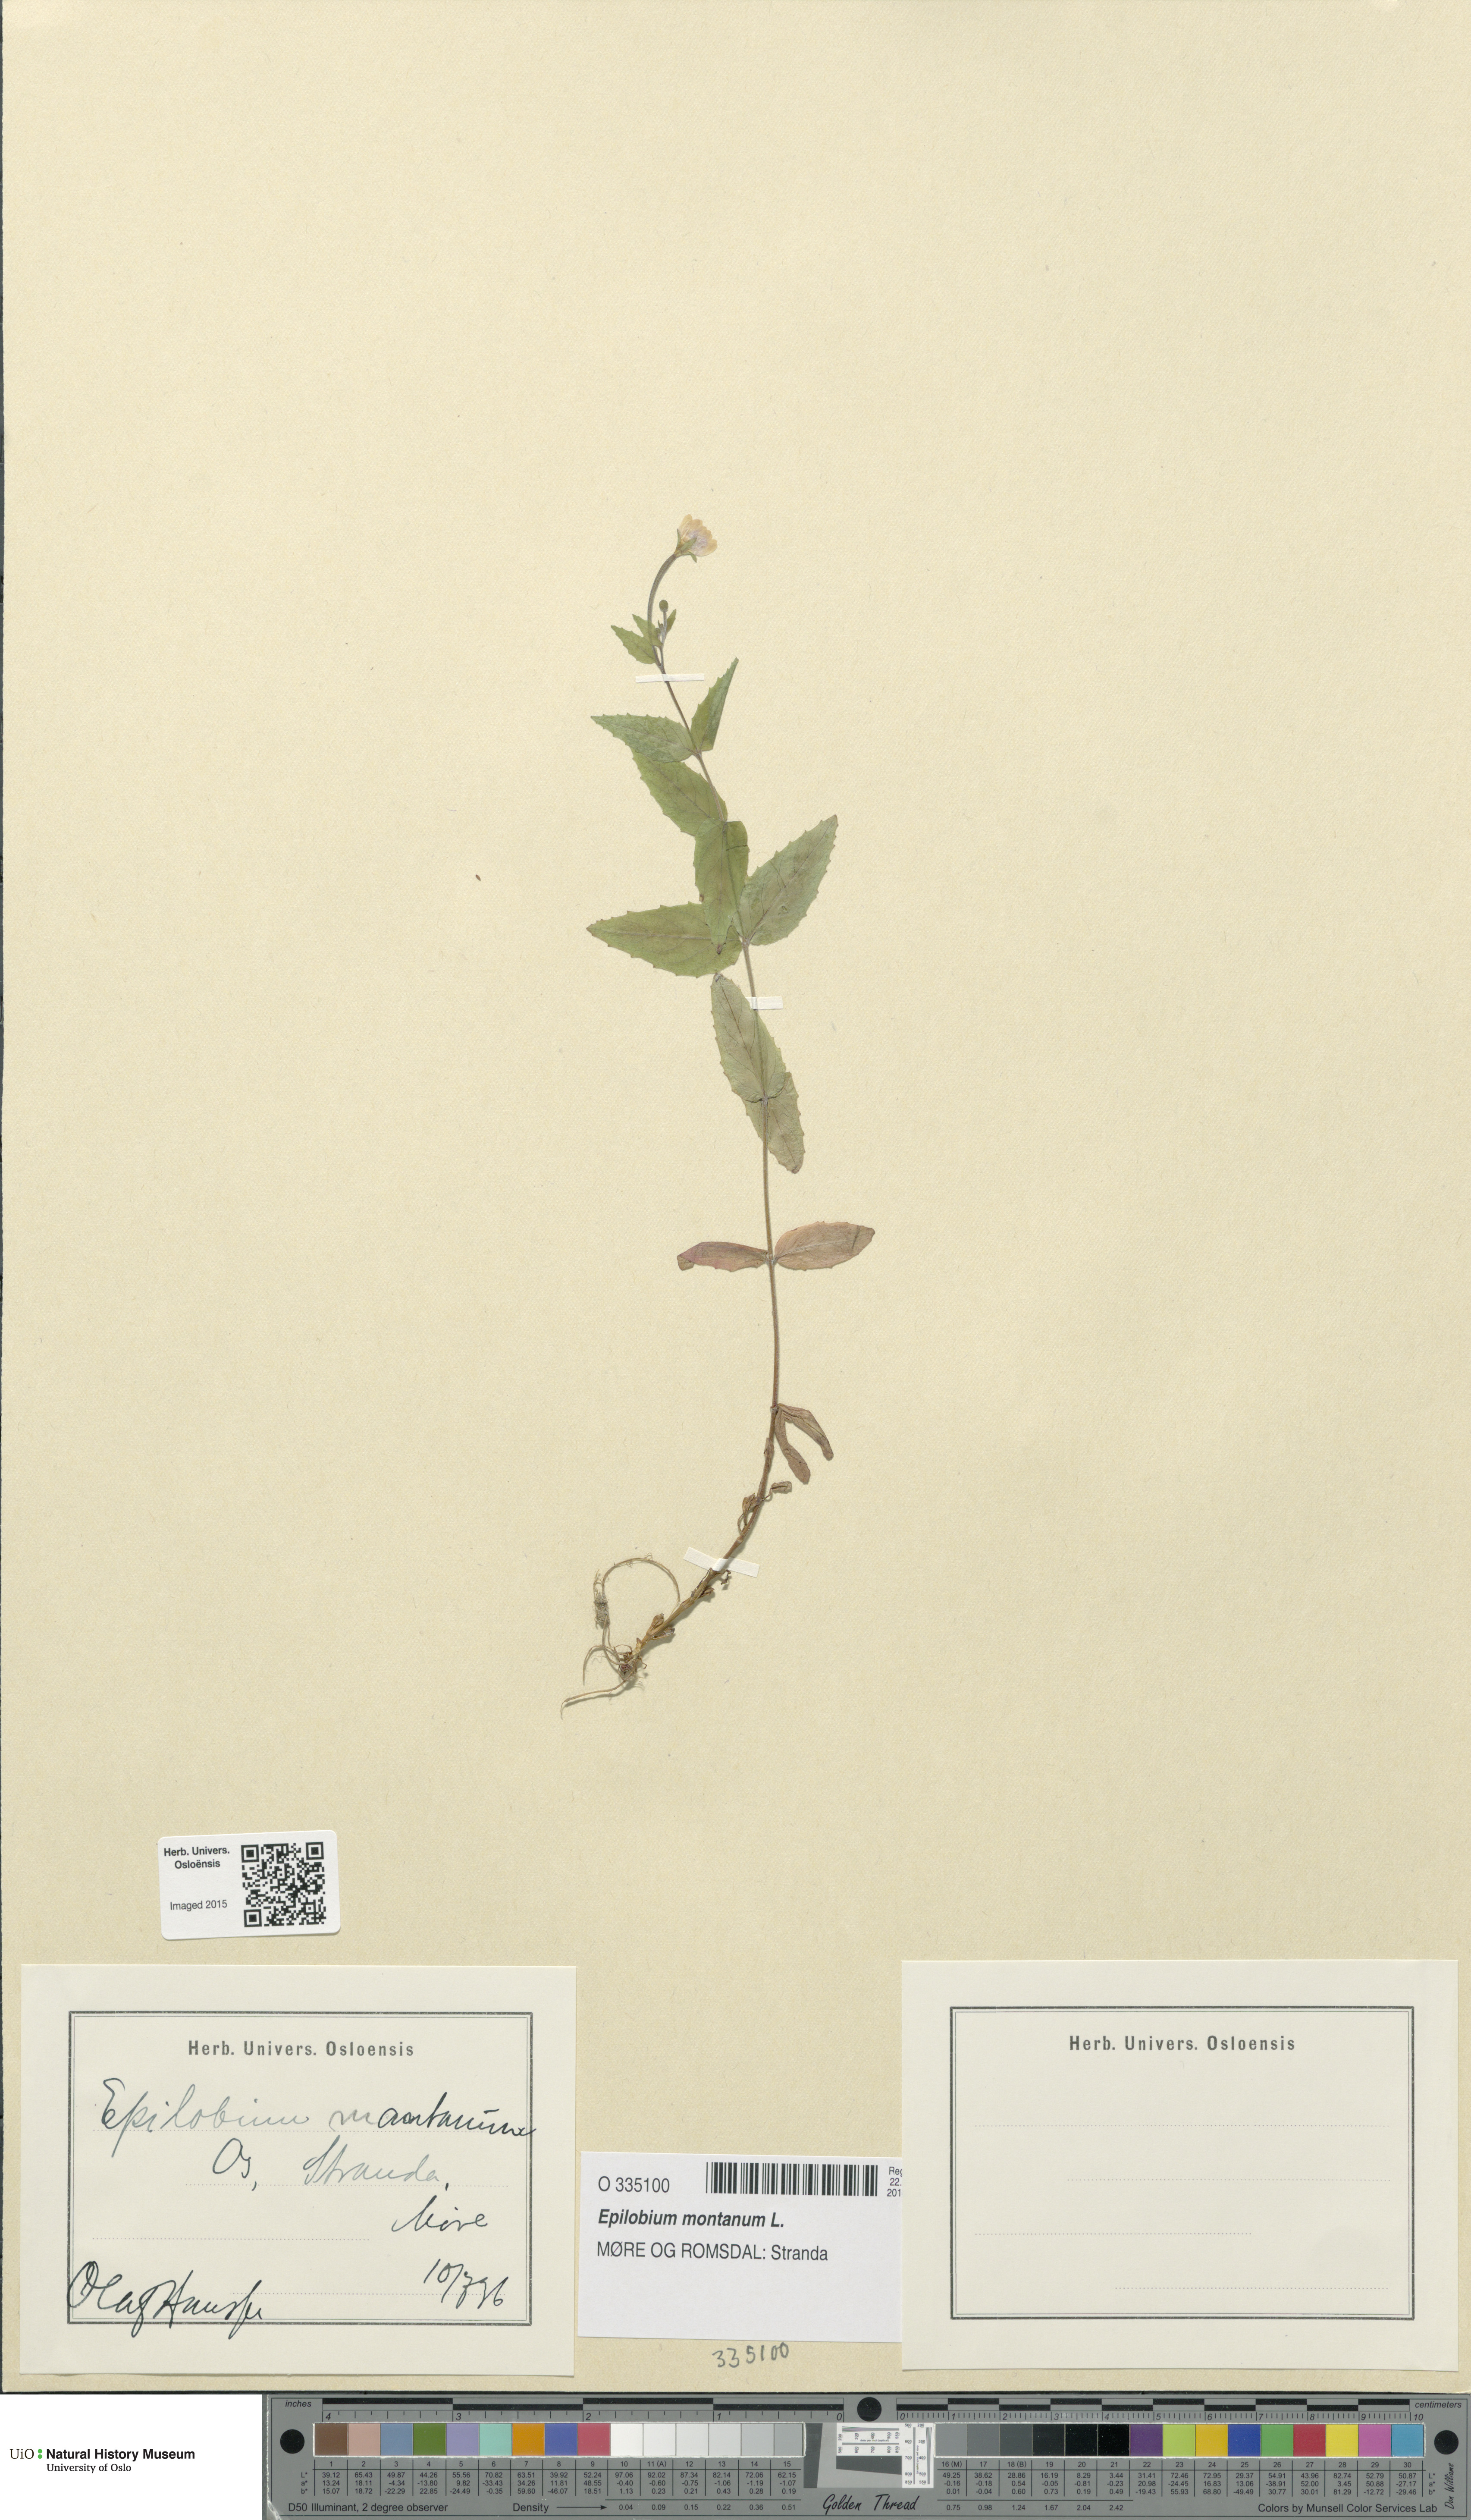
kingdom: Plantae
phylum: Tracheophyta
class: Magnoliopsida
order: Myrtales
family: Onagraceae
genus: Epilobium
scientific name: Epilobium montanum
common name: Broad-leaved willowherb
